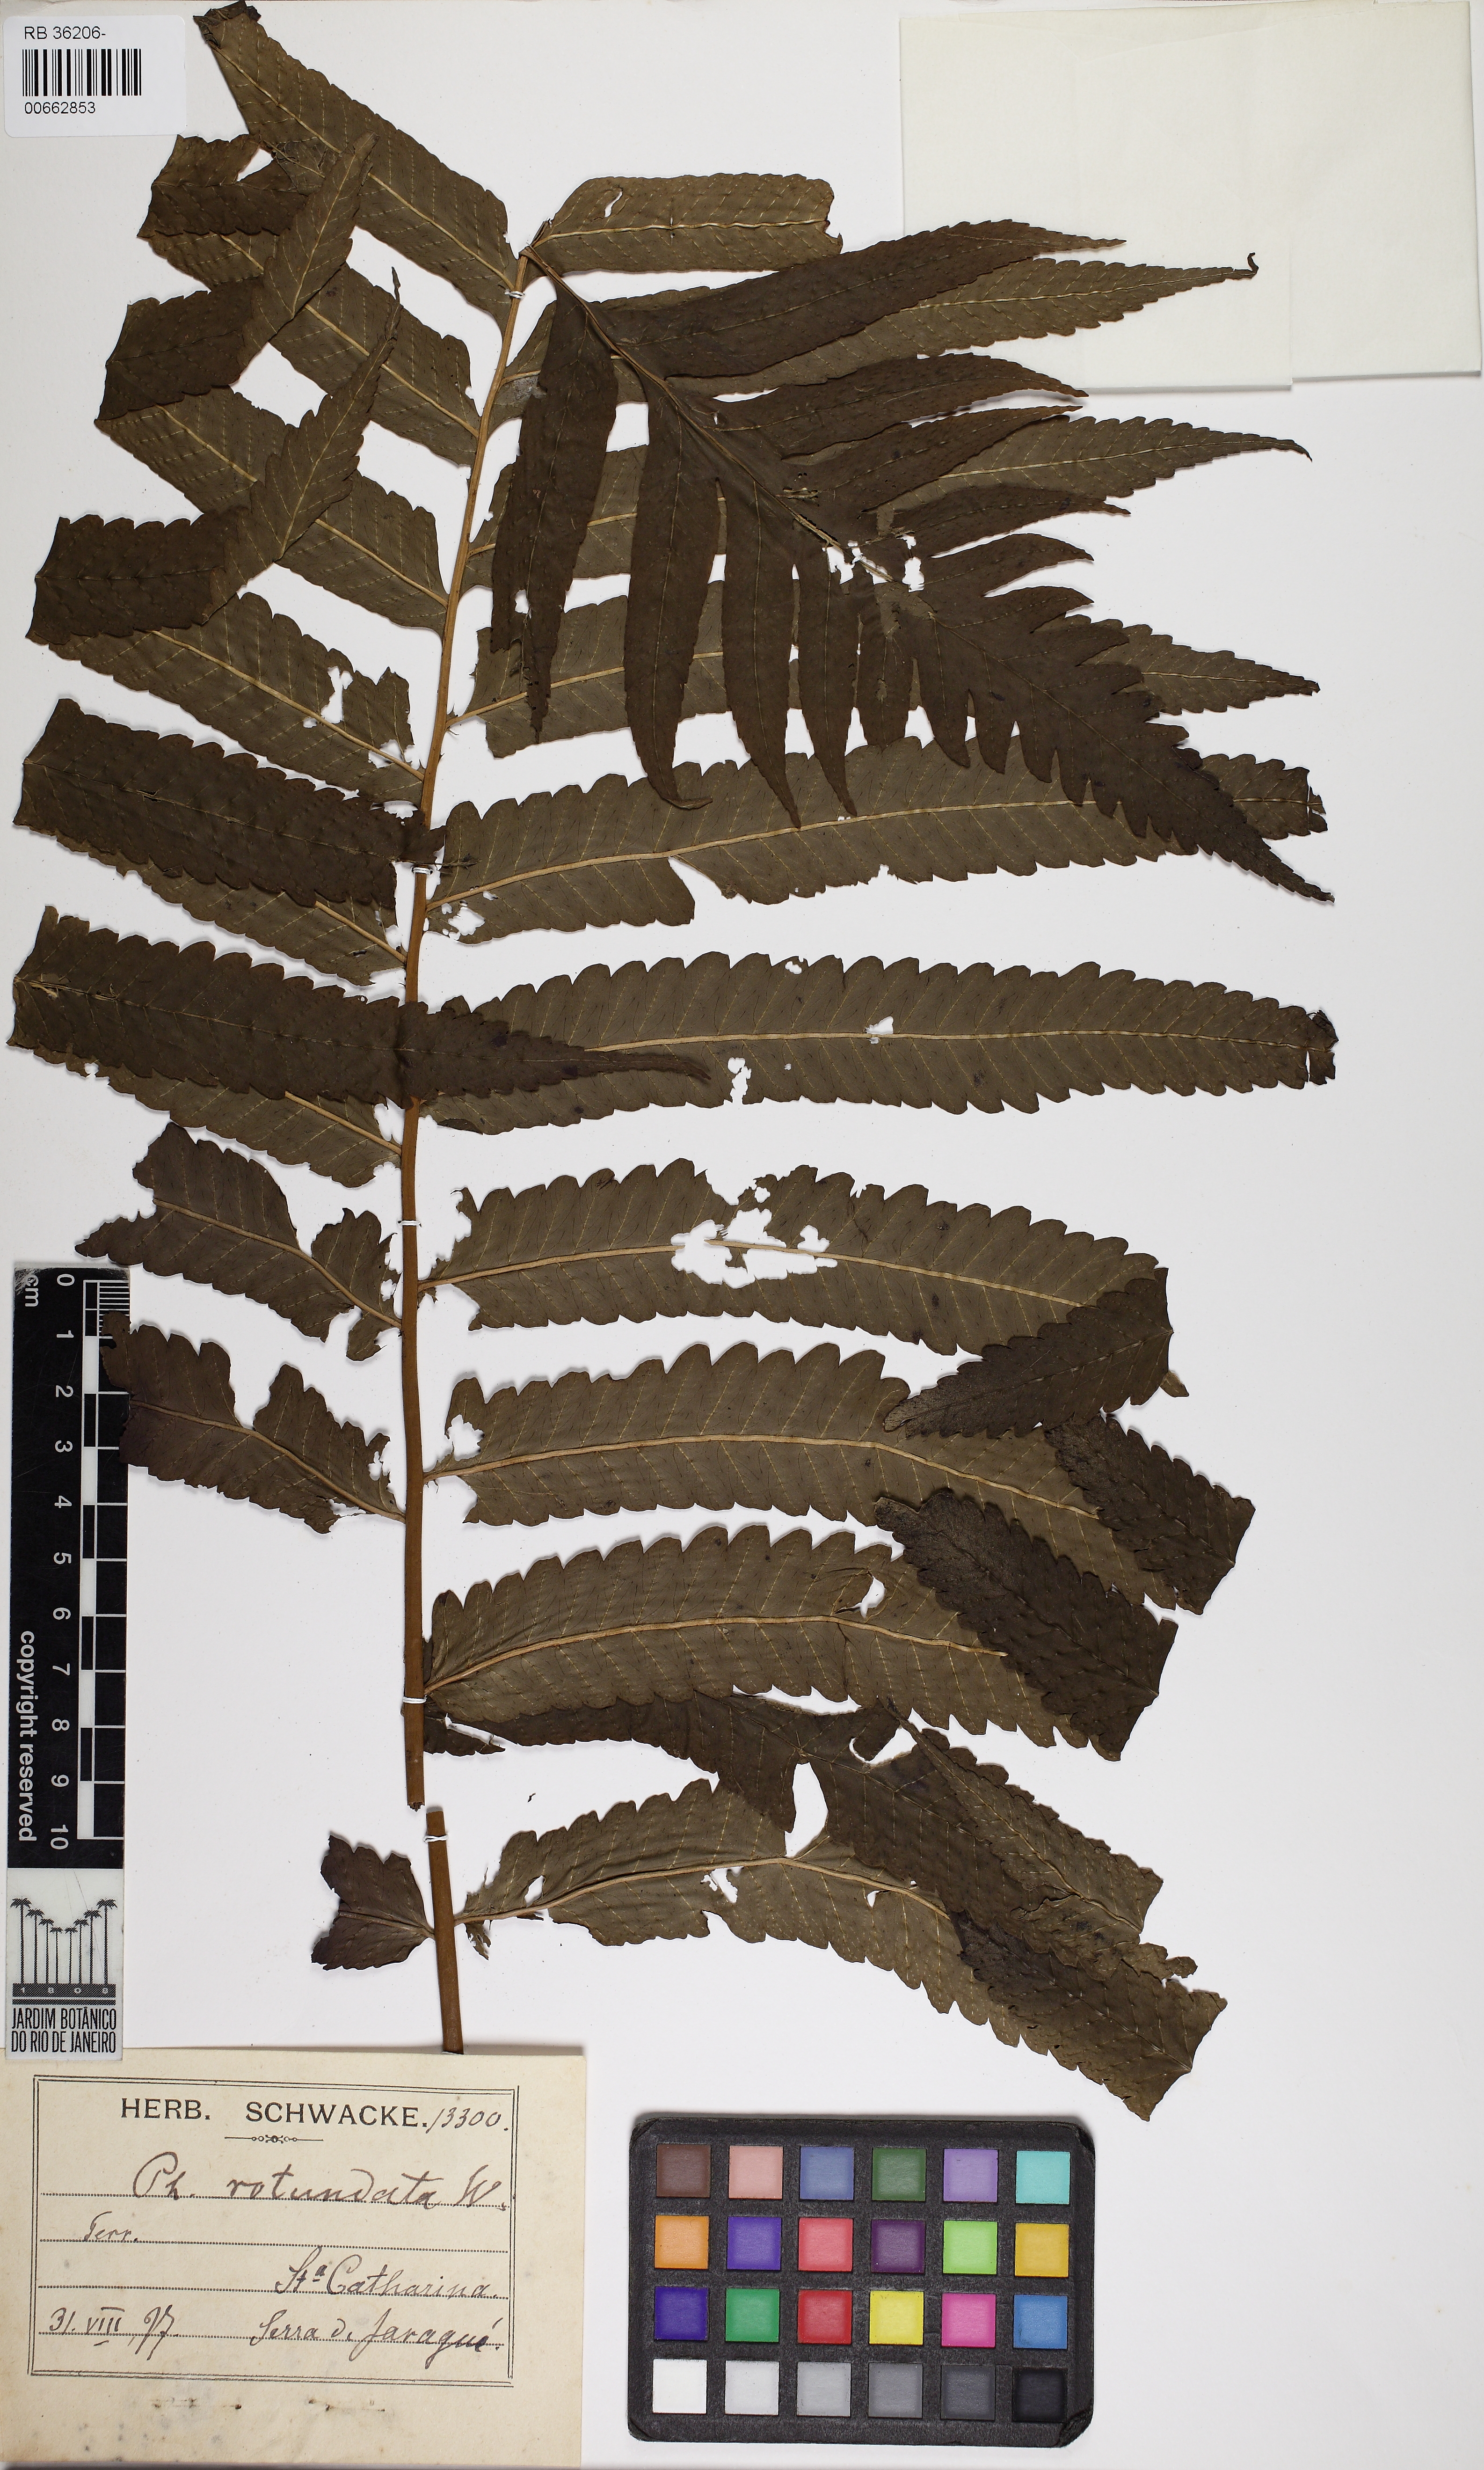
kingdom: Plantae
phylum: Tracheophyta
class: Polypodiopsida
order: Polypodiales
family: Dryopteridaceae
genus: Stigmatopteris
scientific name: Stigmatopteris heterocarpa
